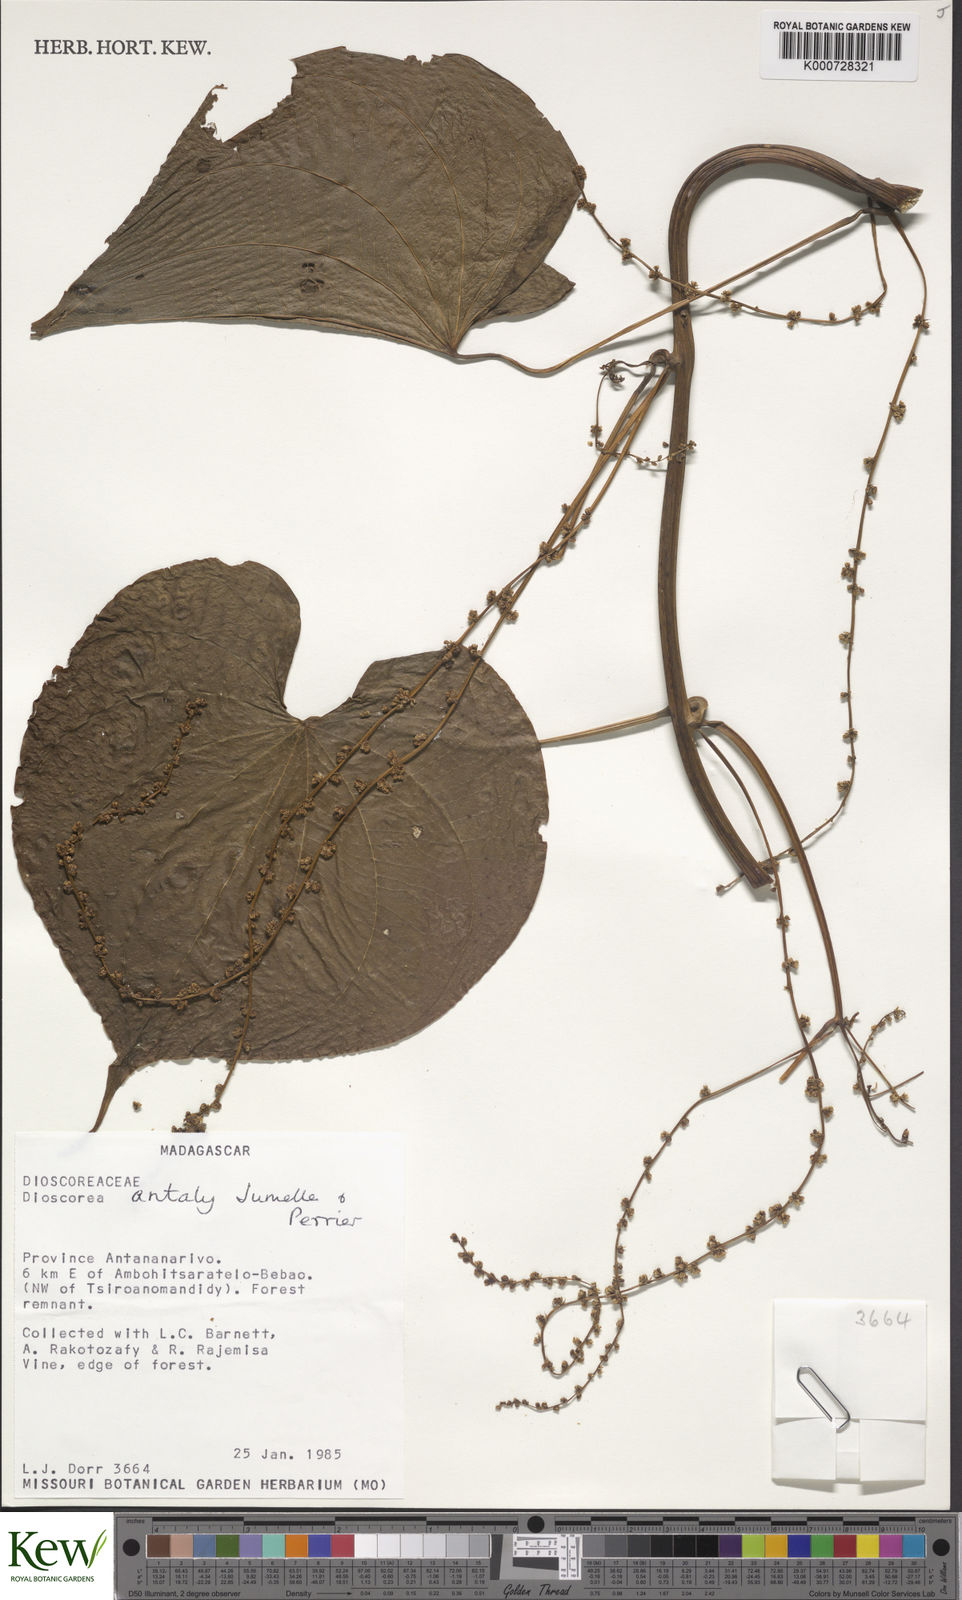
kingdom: Plantae
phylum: Tracheophyta
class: Liliopsida
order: Dioscoreales
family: Dioscoreaceae
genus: Dioscorea
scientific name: Dioscorea antaly
